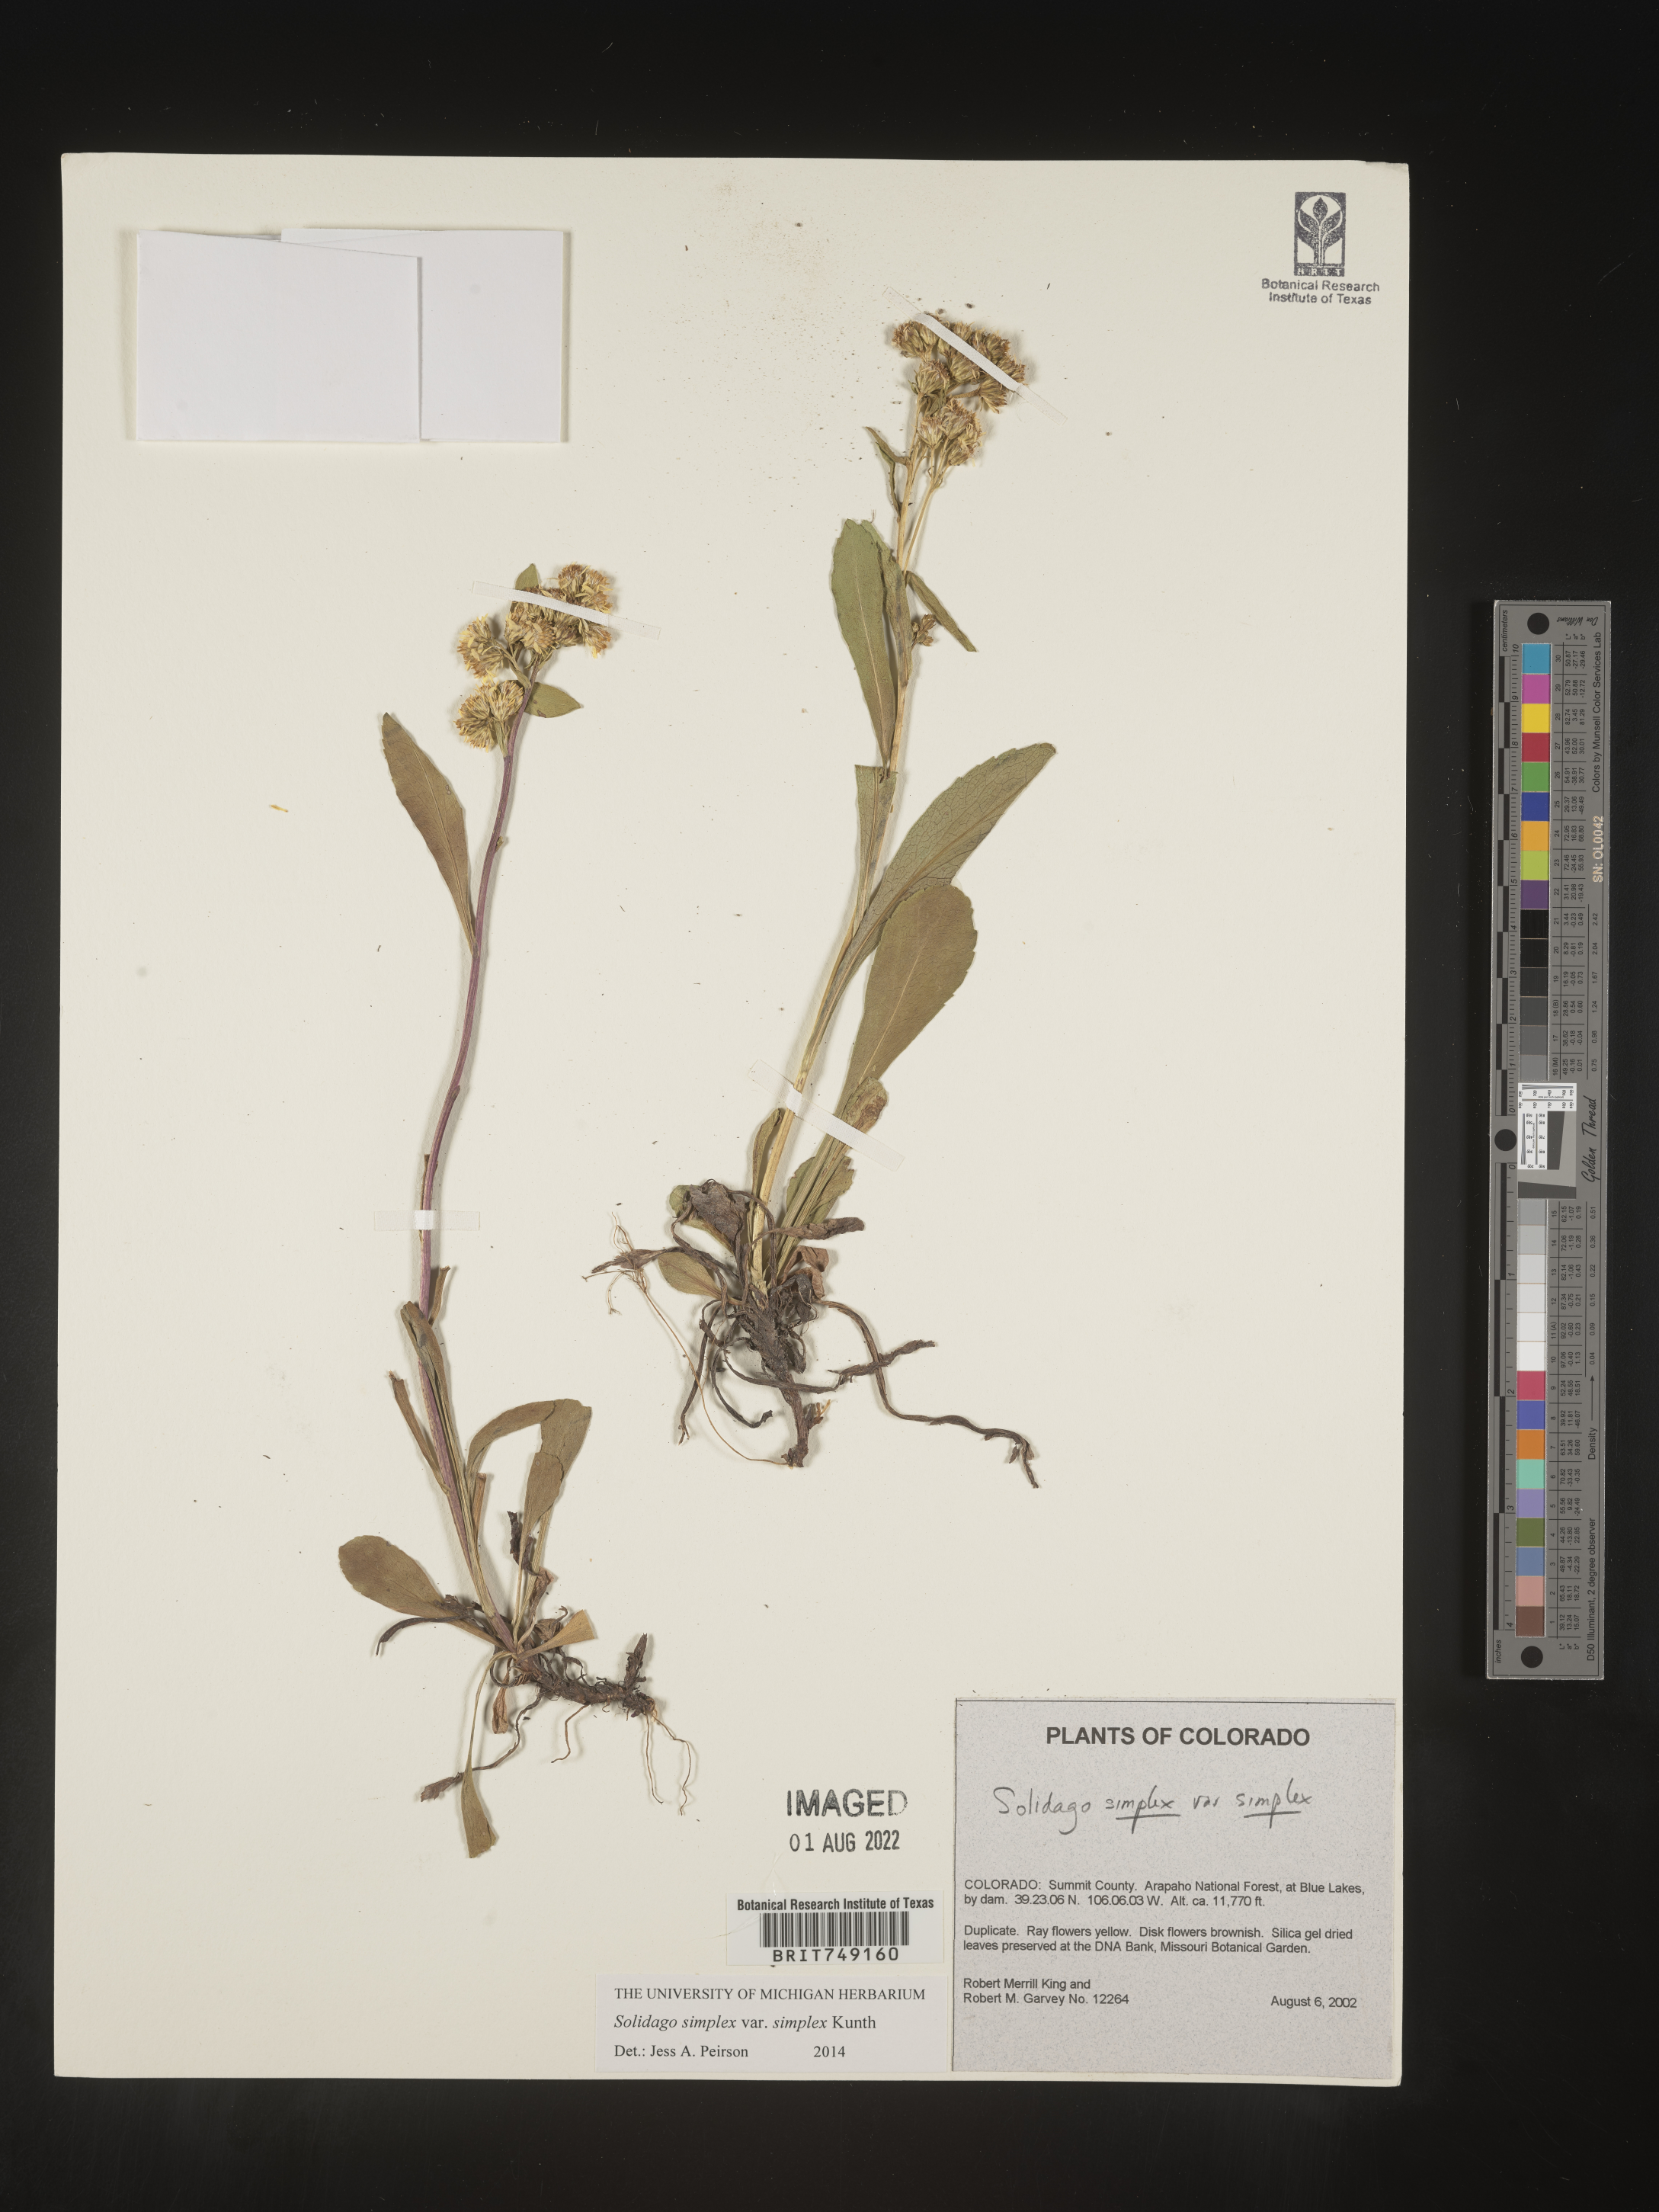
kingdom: Plantae
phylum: Tracheophyta
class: Magnoliopsida
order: Asterales
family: Asteraceae
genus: Solidago
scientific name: Solidago simplex
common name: Sticky goldenrod
